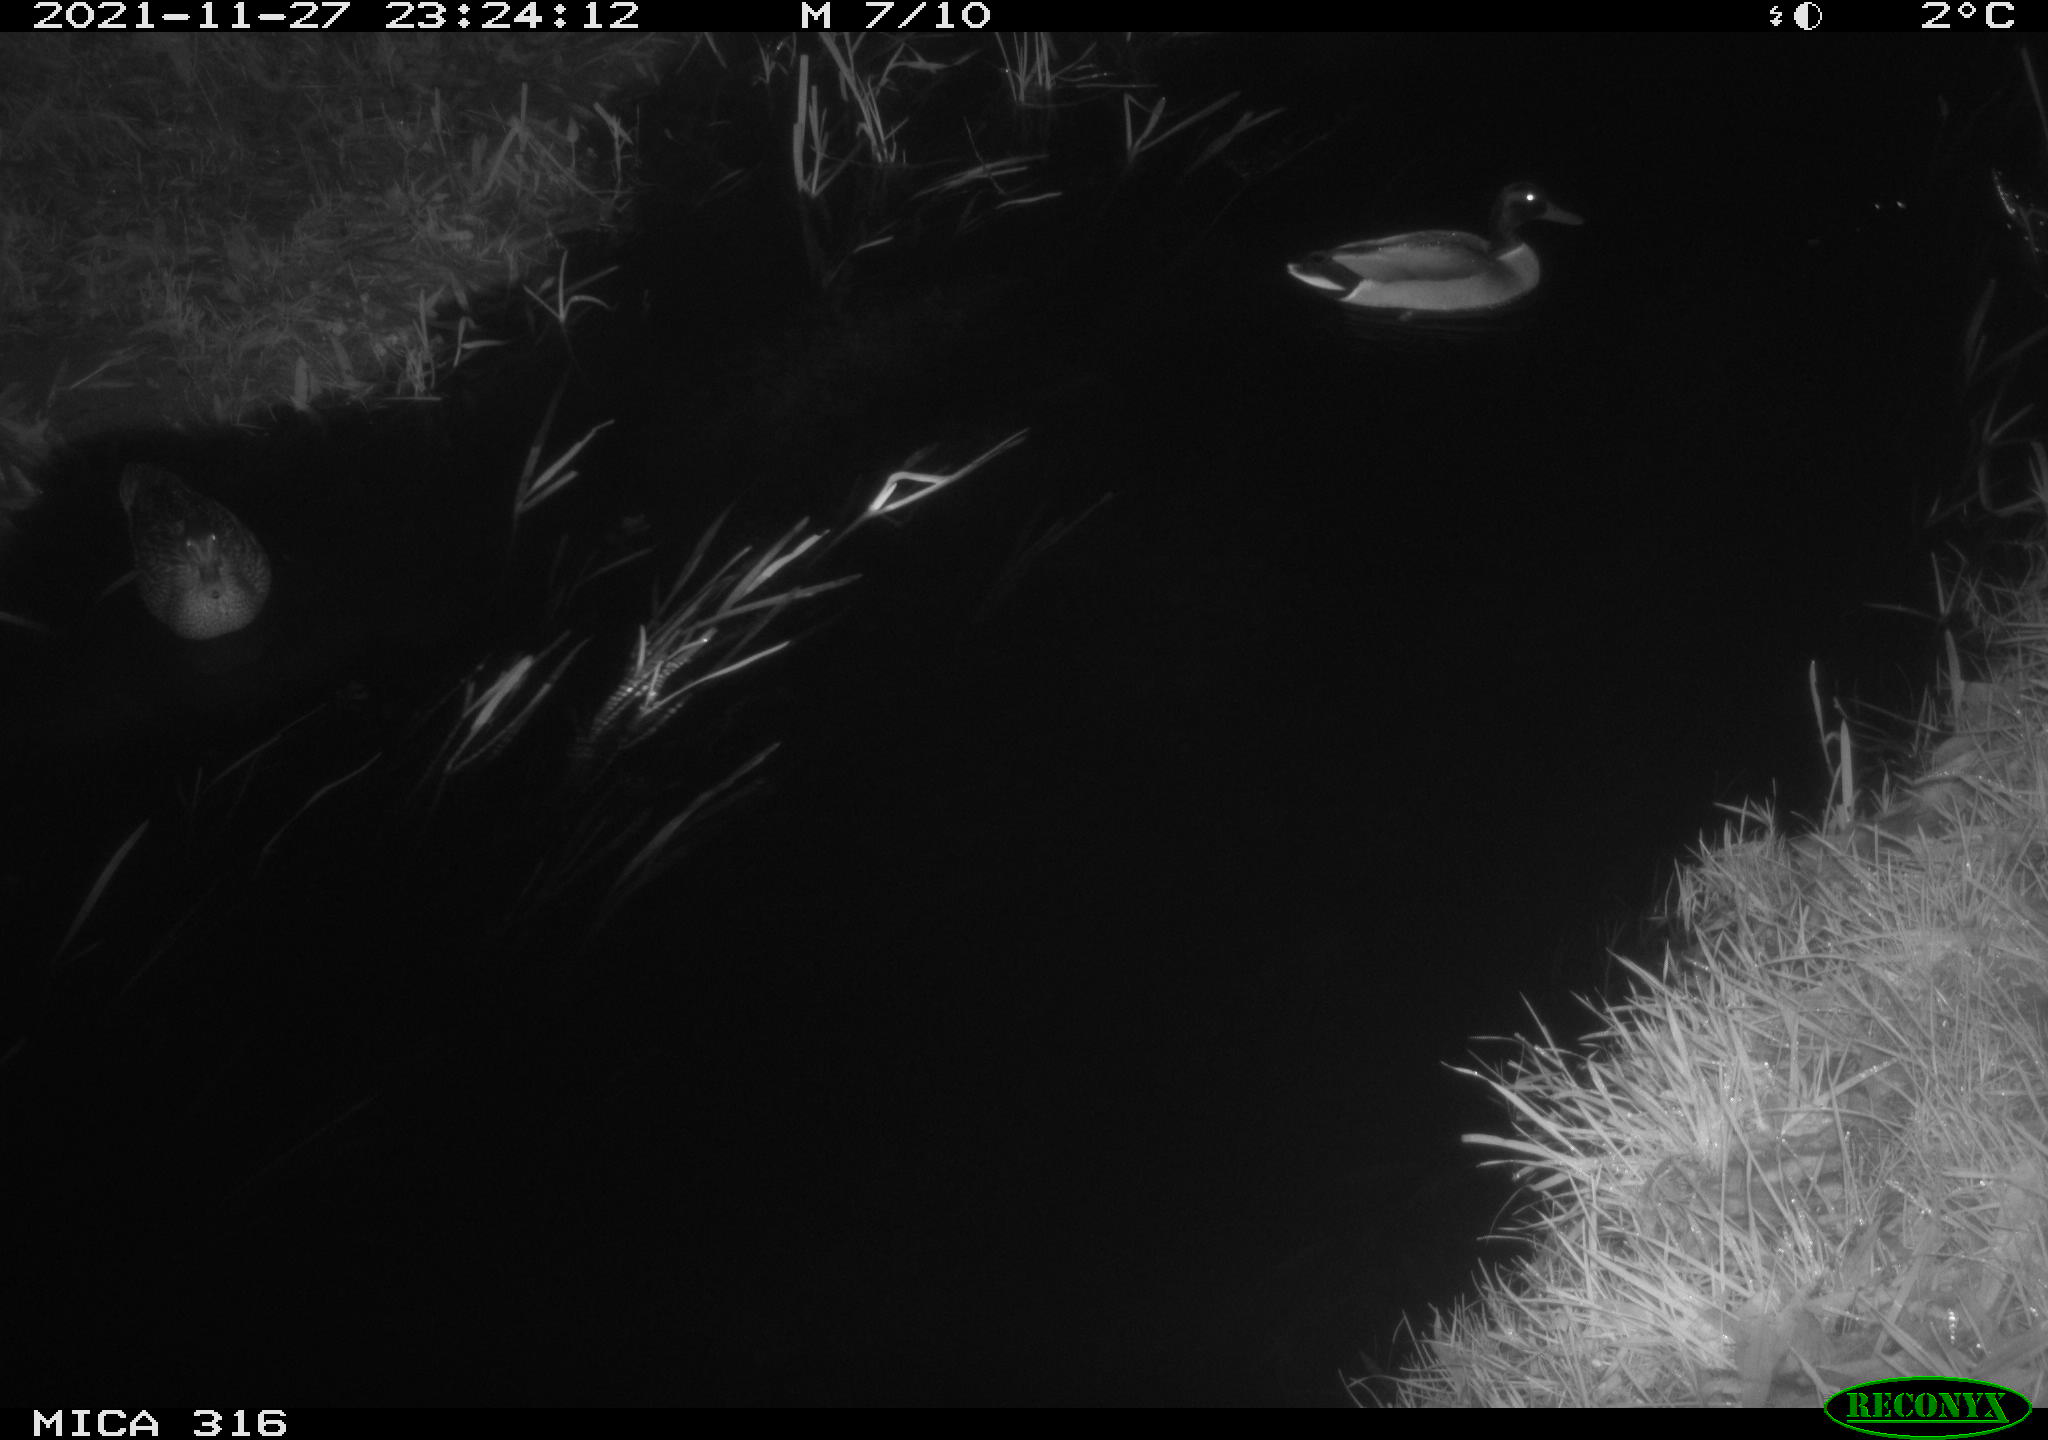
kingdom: Animalia
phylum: Chordata
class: Aves
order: Anseriformes
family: Anatidae
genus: Anas
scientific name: Anas platyrhynchos
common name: Mallard
